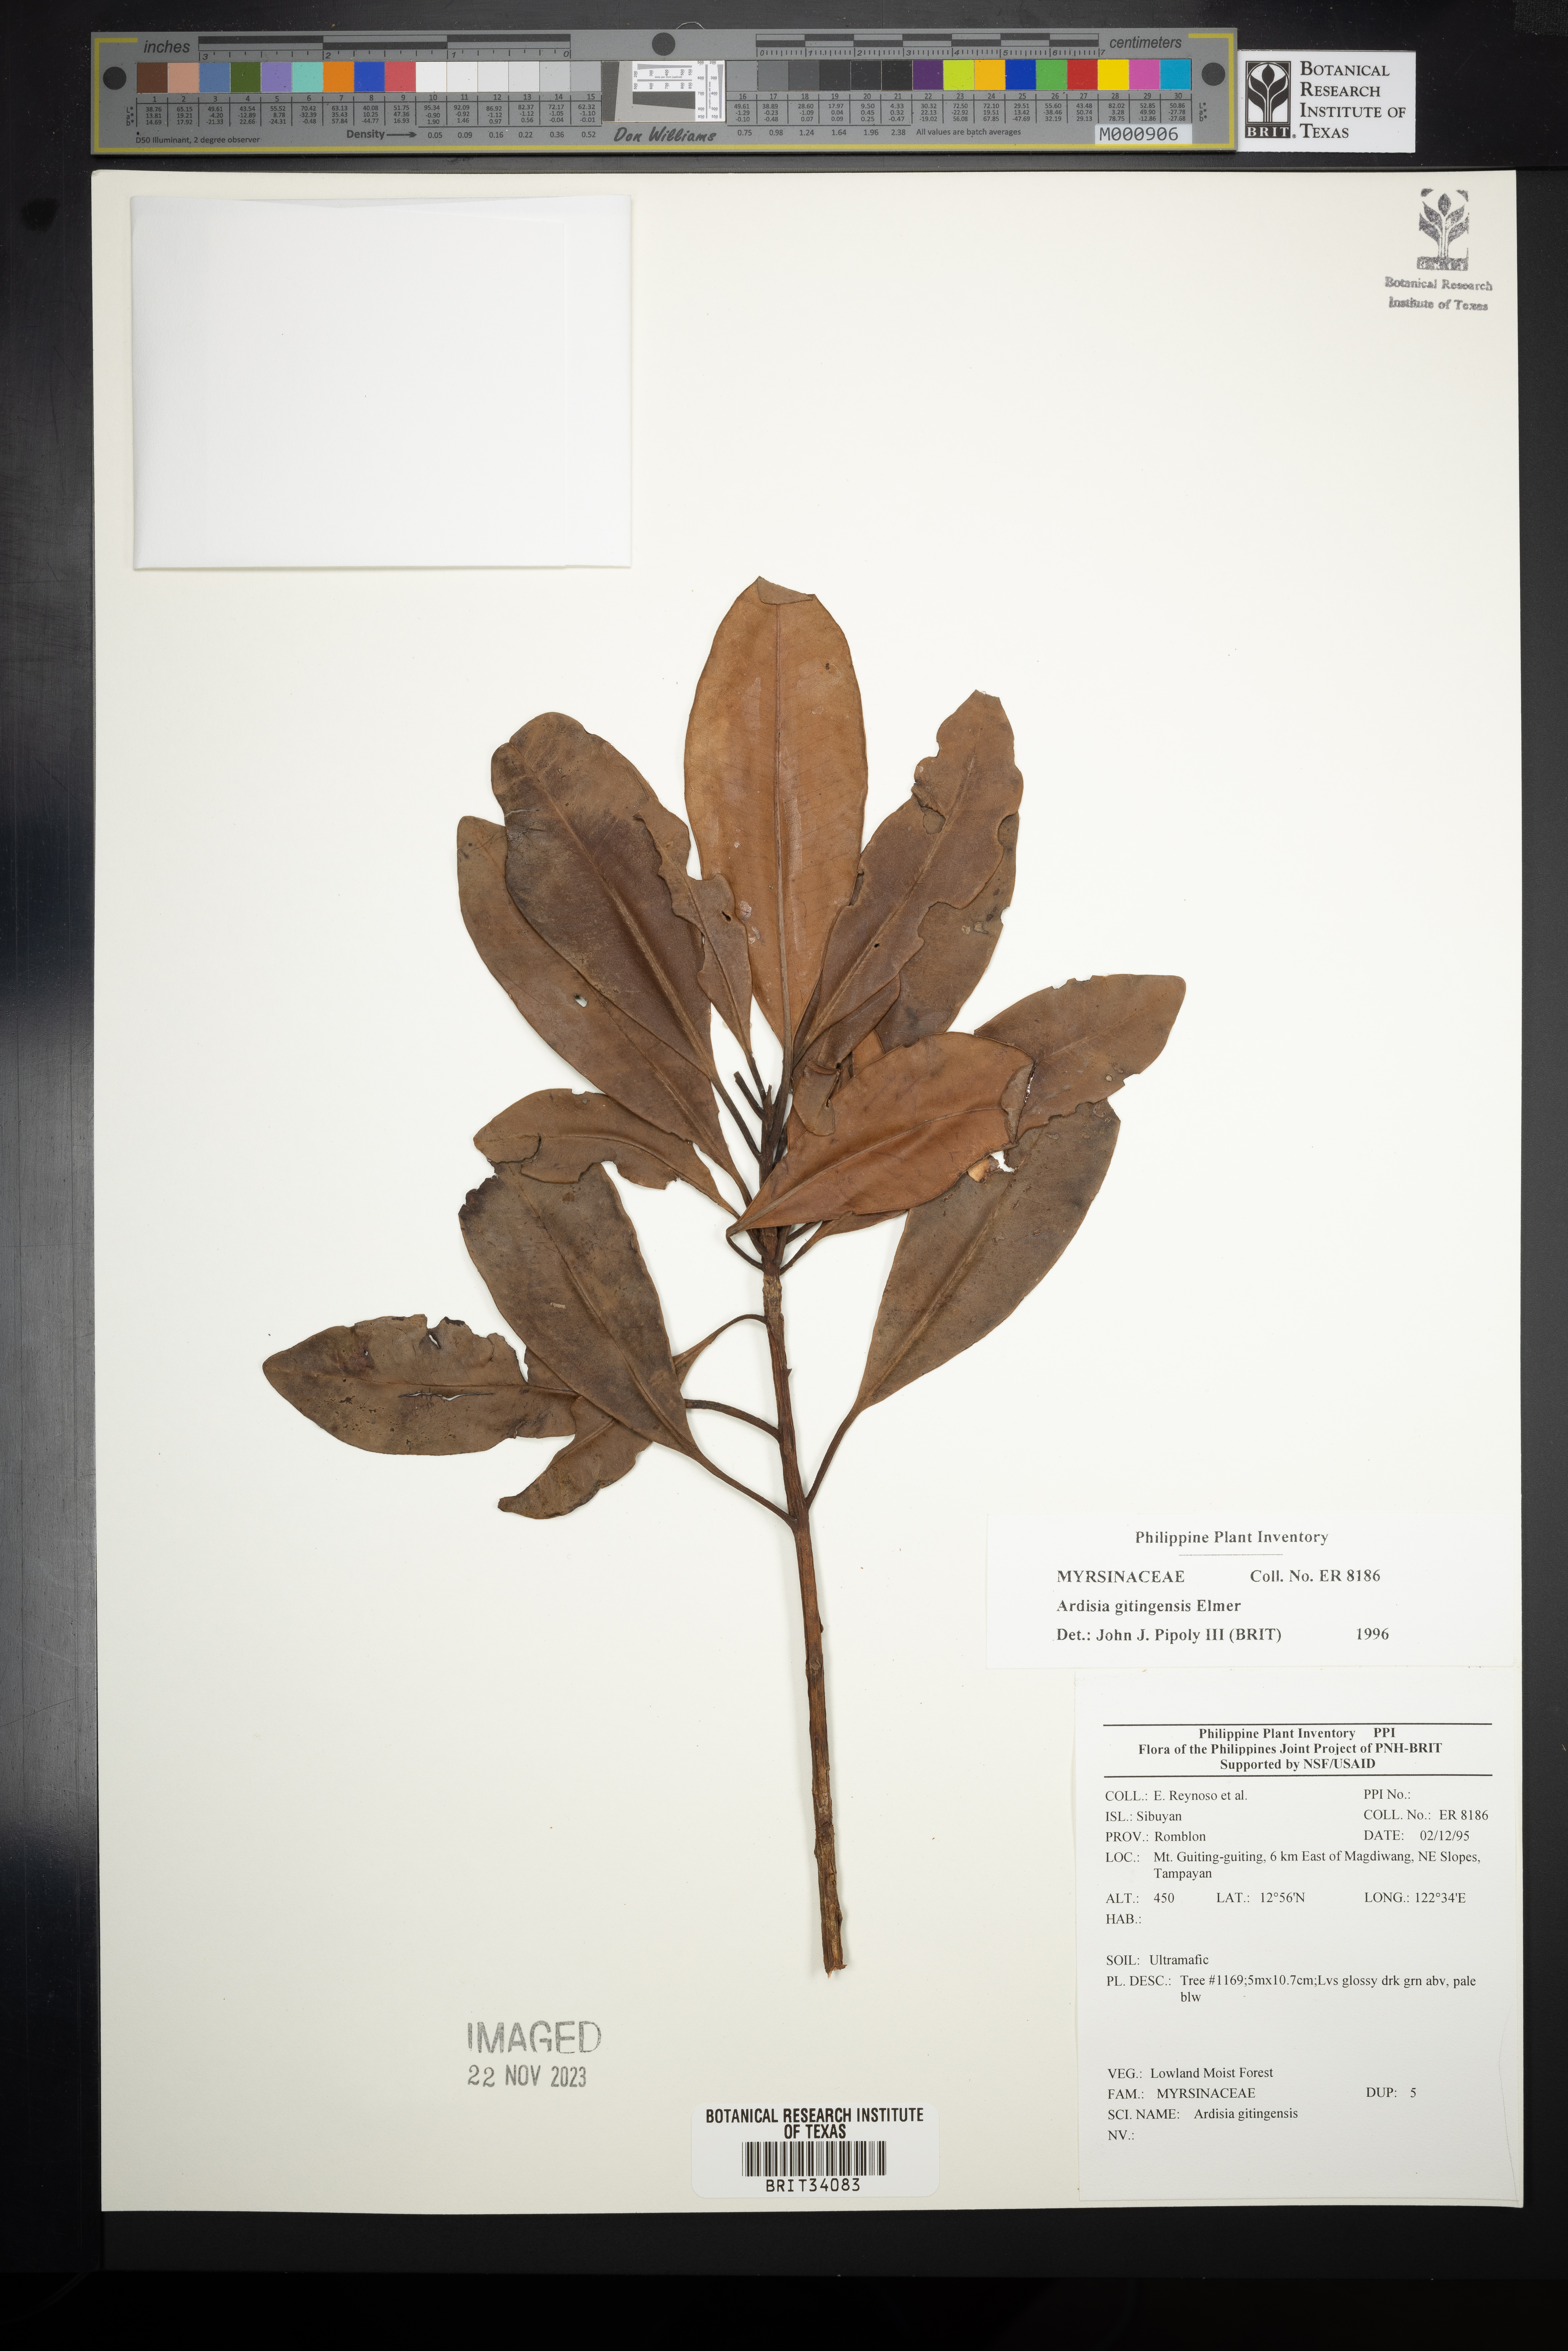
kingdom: Plantae
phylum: Tracheophyta
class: Magnoliopsida
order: Ericales
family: Primulaceae
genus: Ardisia
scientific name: Ardisia darlingii
